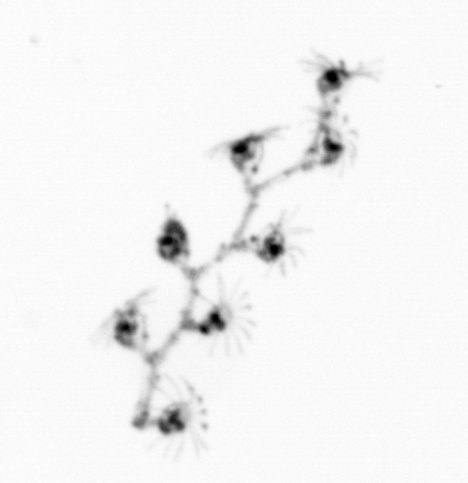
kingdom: Animalia
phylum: Cnidaria
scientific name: Cnidaria
